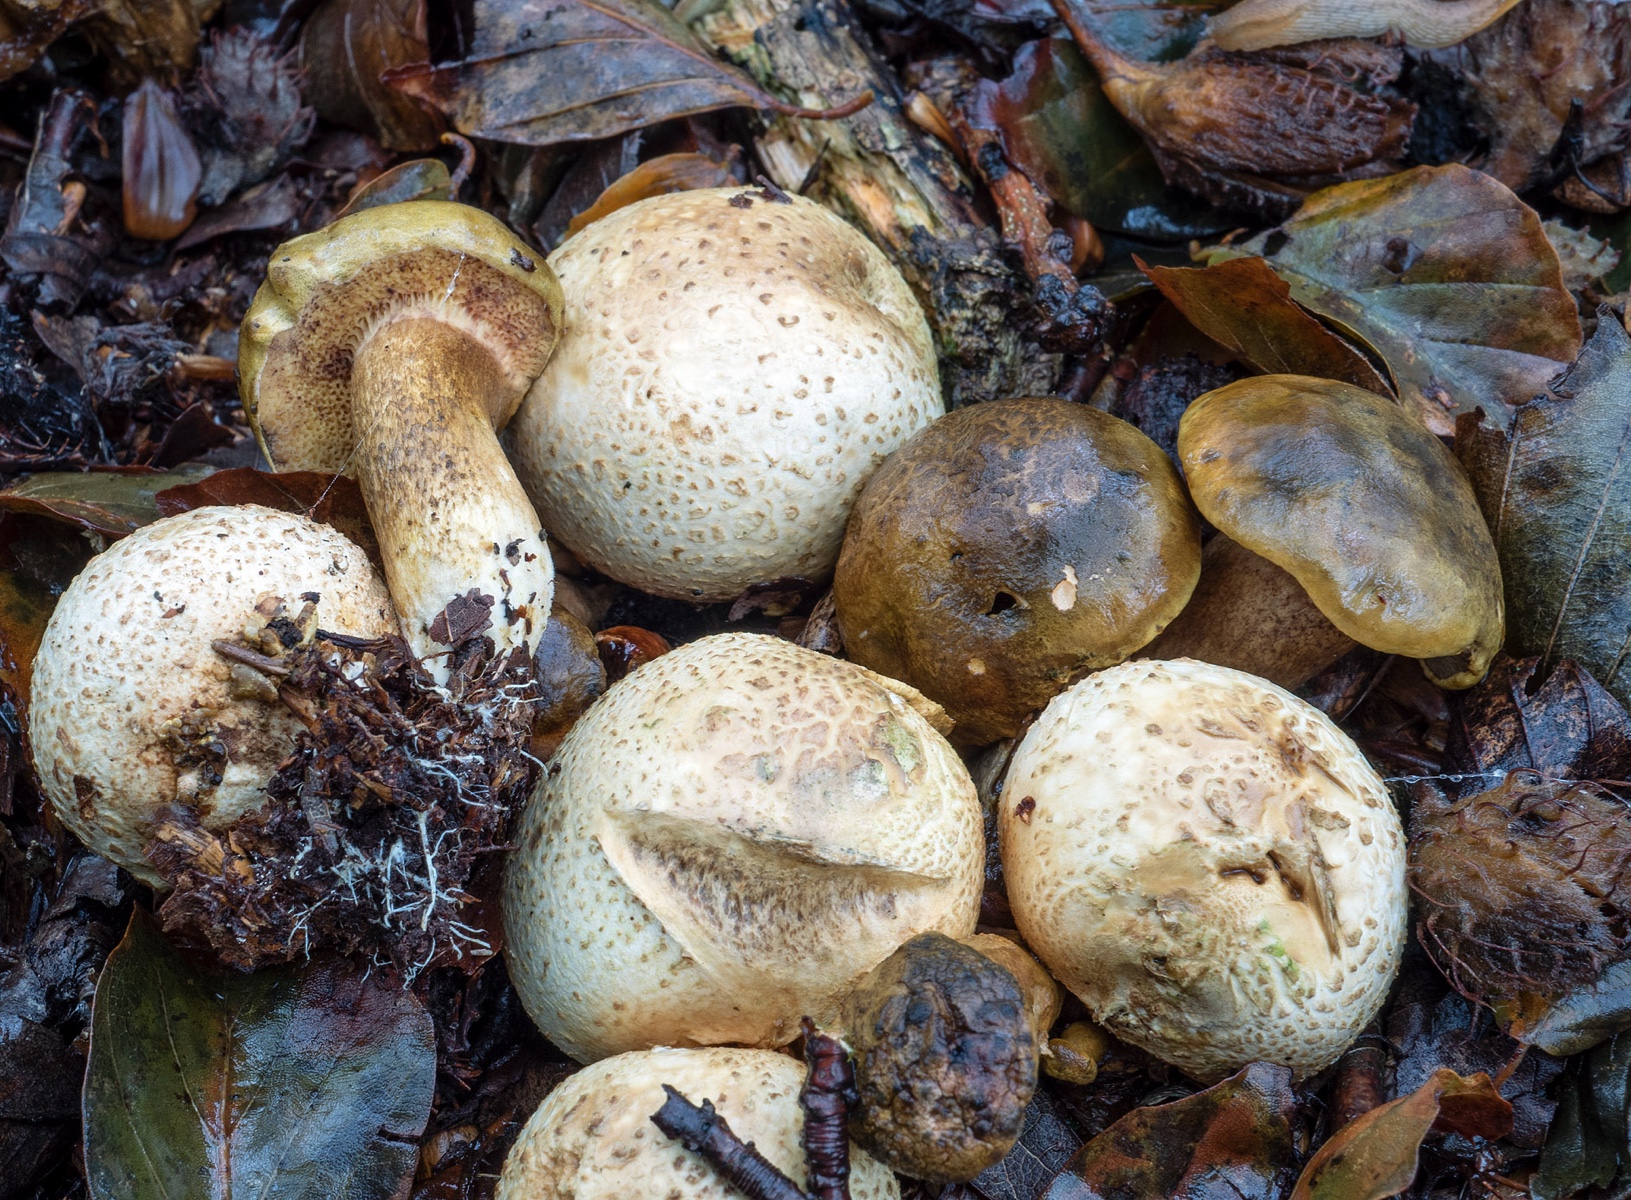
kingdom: Fungi
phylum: Basidiomycota
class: Agaricomycetes
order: Boletales
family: Boletaceae
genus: Pseudoboletus
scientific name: Pseudoboletus parasiticus
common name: snyltende rørhat
